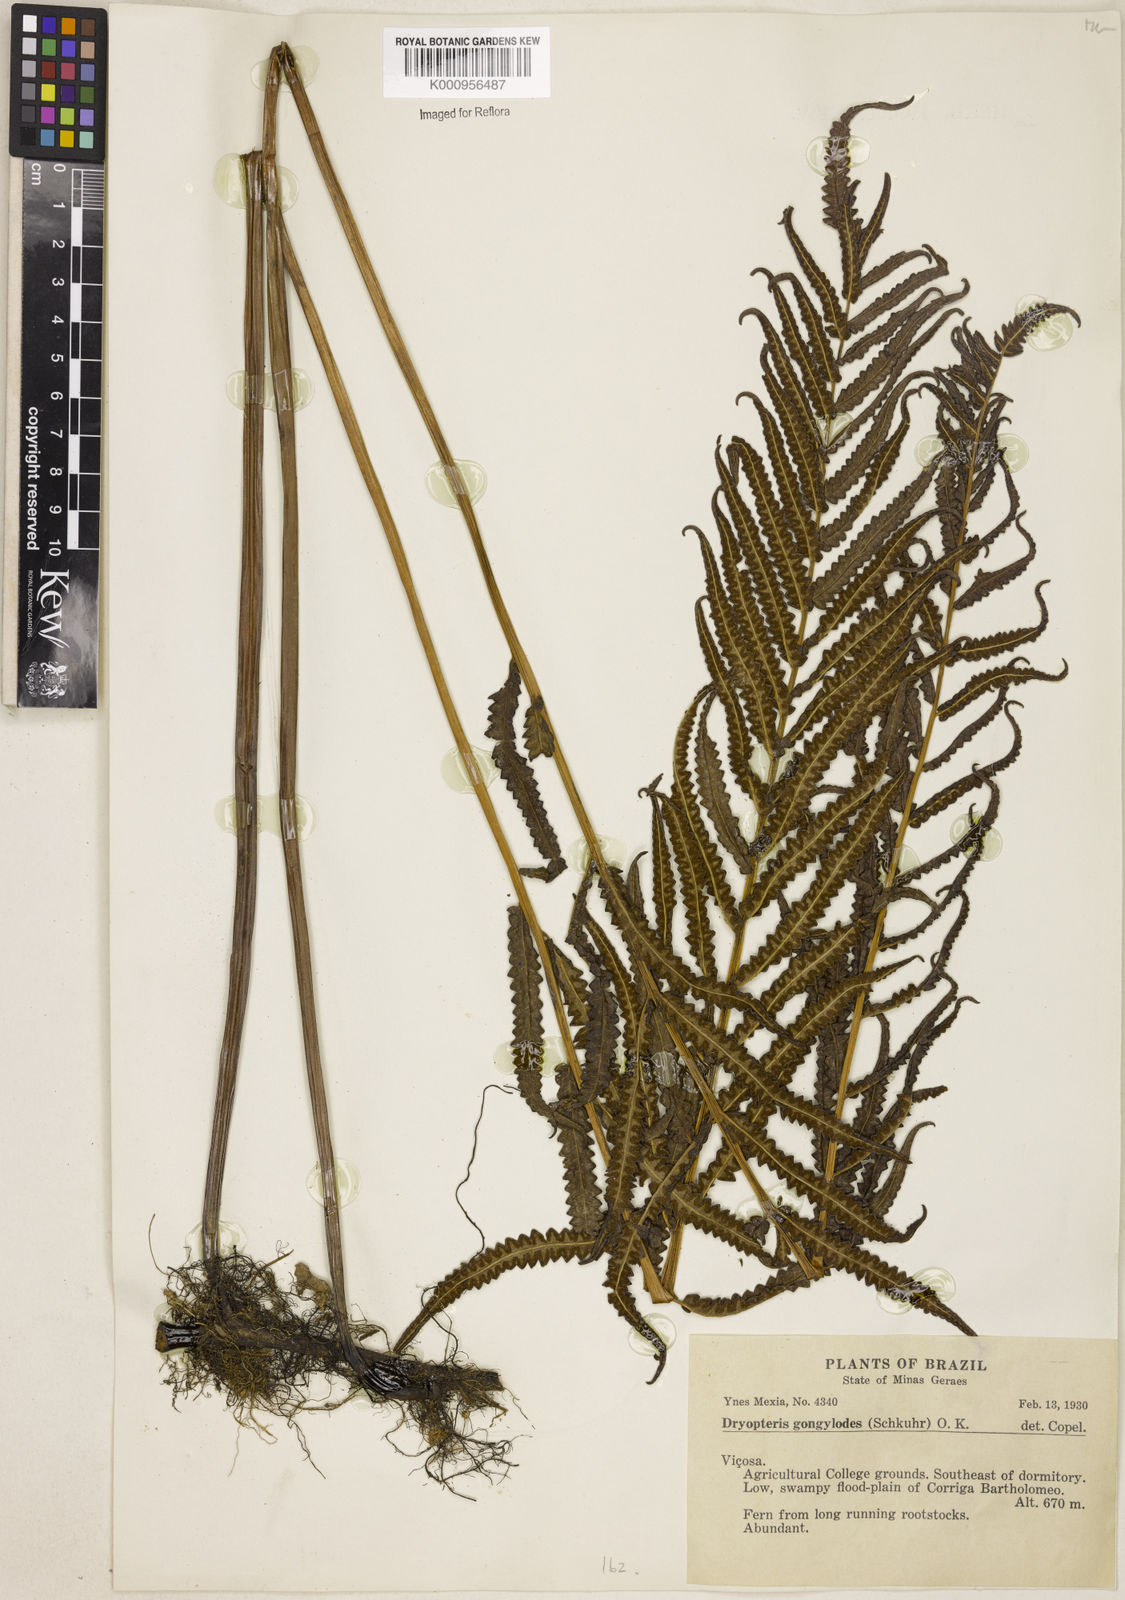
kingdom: Plantae
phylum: Tracheophyta
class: Polypodiopsida
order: Polypodiales
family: Thelypteridaceae
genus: Cyclosorus
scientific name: Cyclosorus interruptus
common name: Neke fern
